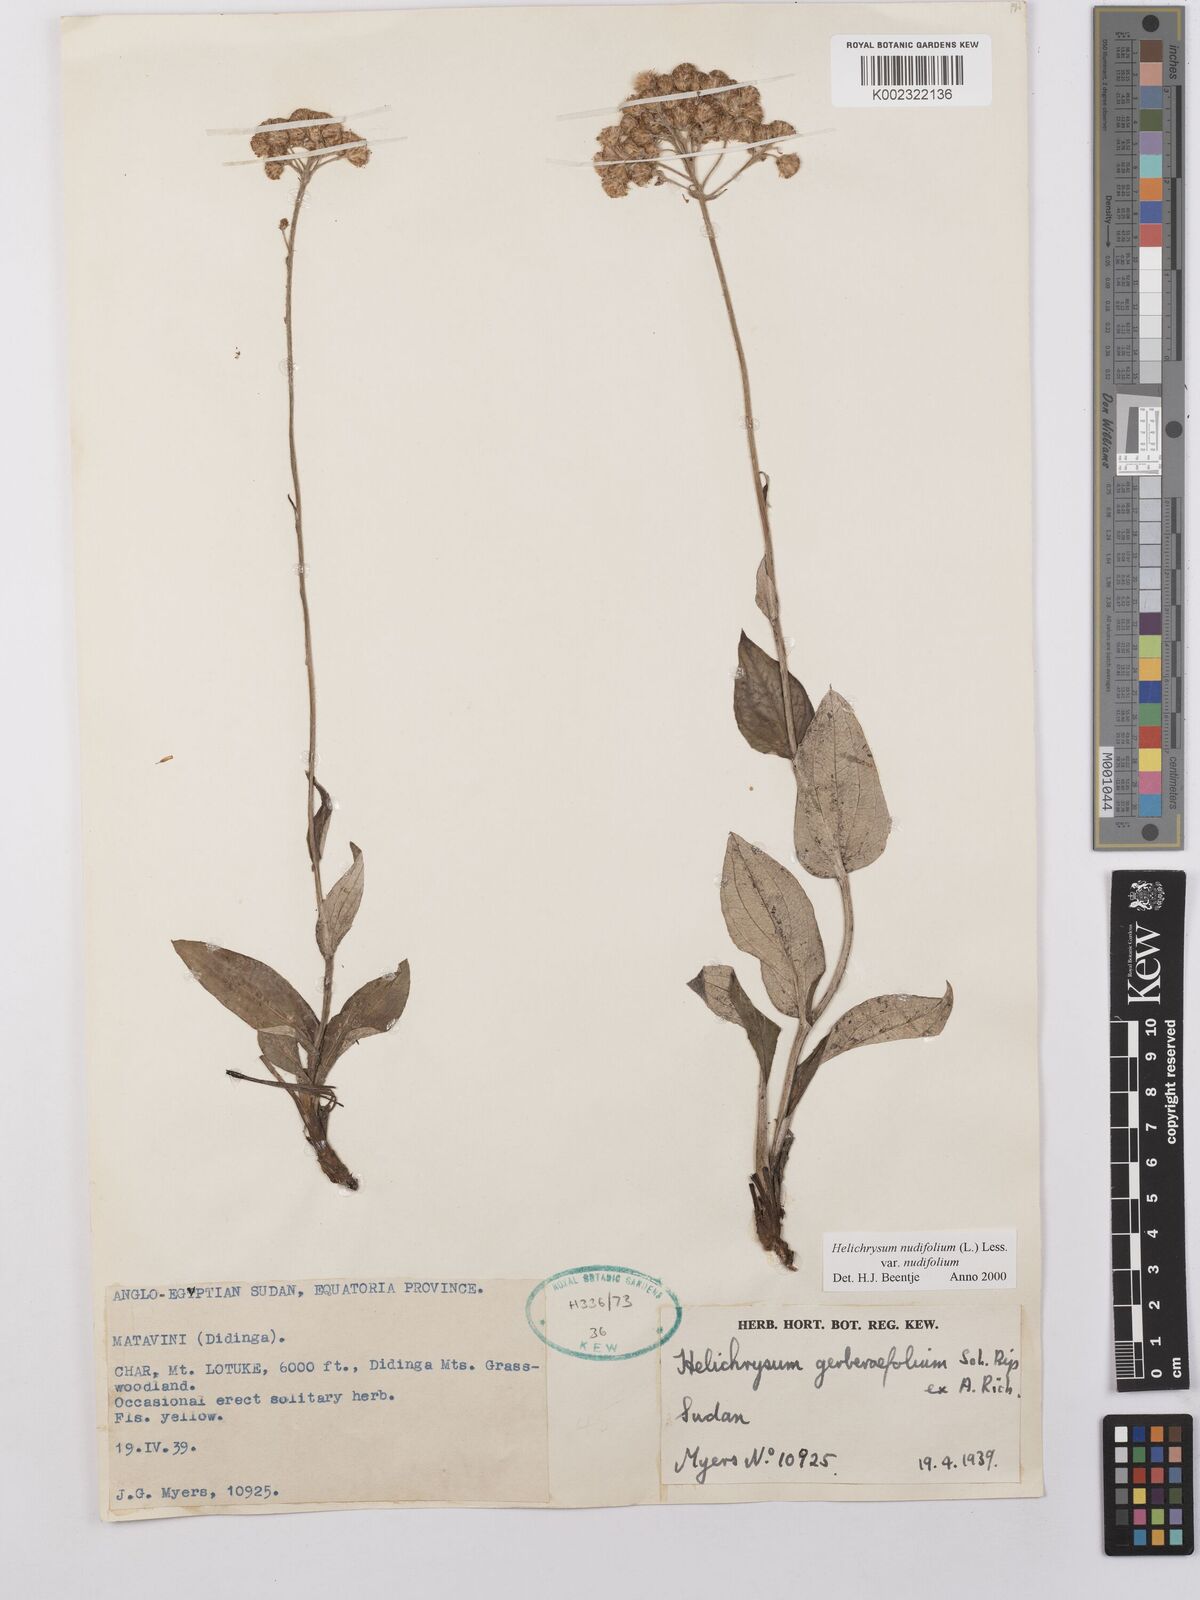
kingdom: Plantae
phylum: Tracheophyta
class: Magnoliopsida
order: Asterales
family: Asteraceae
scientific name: Asteraceae
